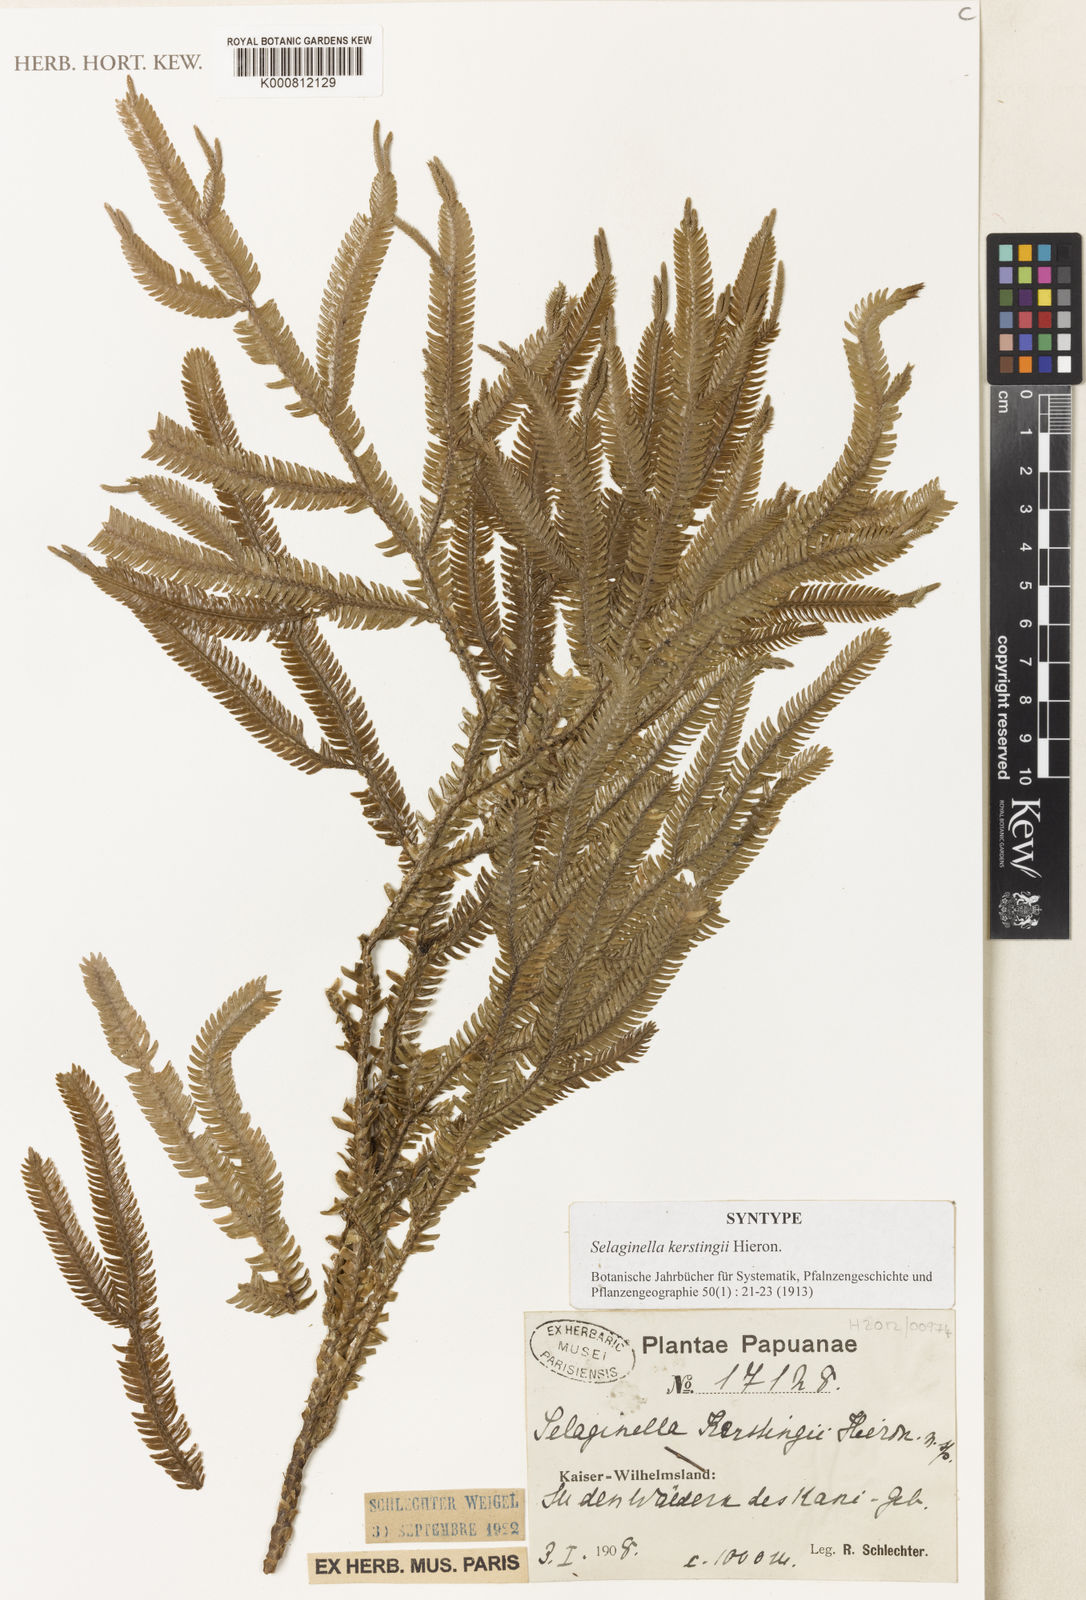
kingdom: Plantae
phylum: Tracheophyta
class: Lycopodiopsida
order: Selaginellales
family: Selaginellaceae
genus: Selaginella
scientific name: Selaginella kerstingii
